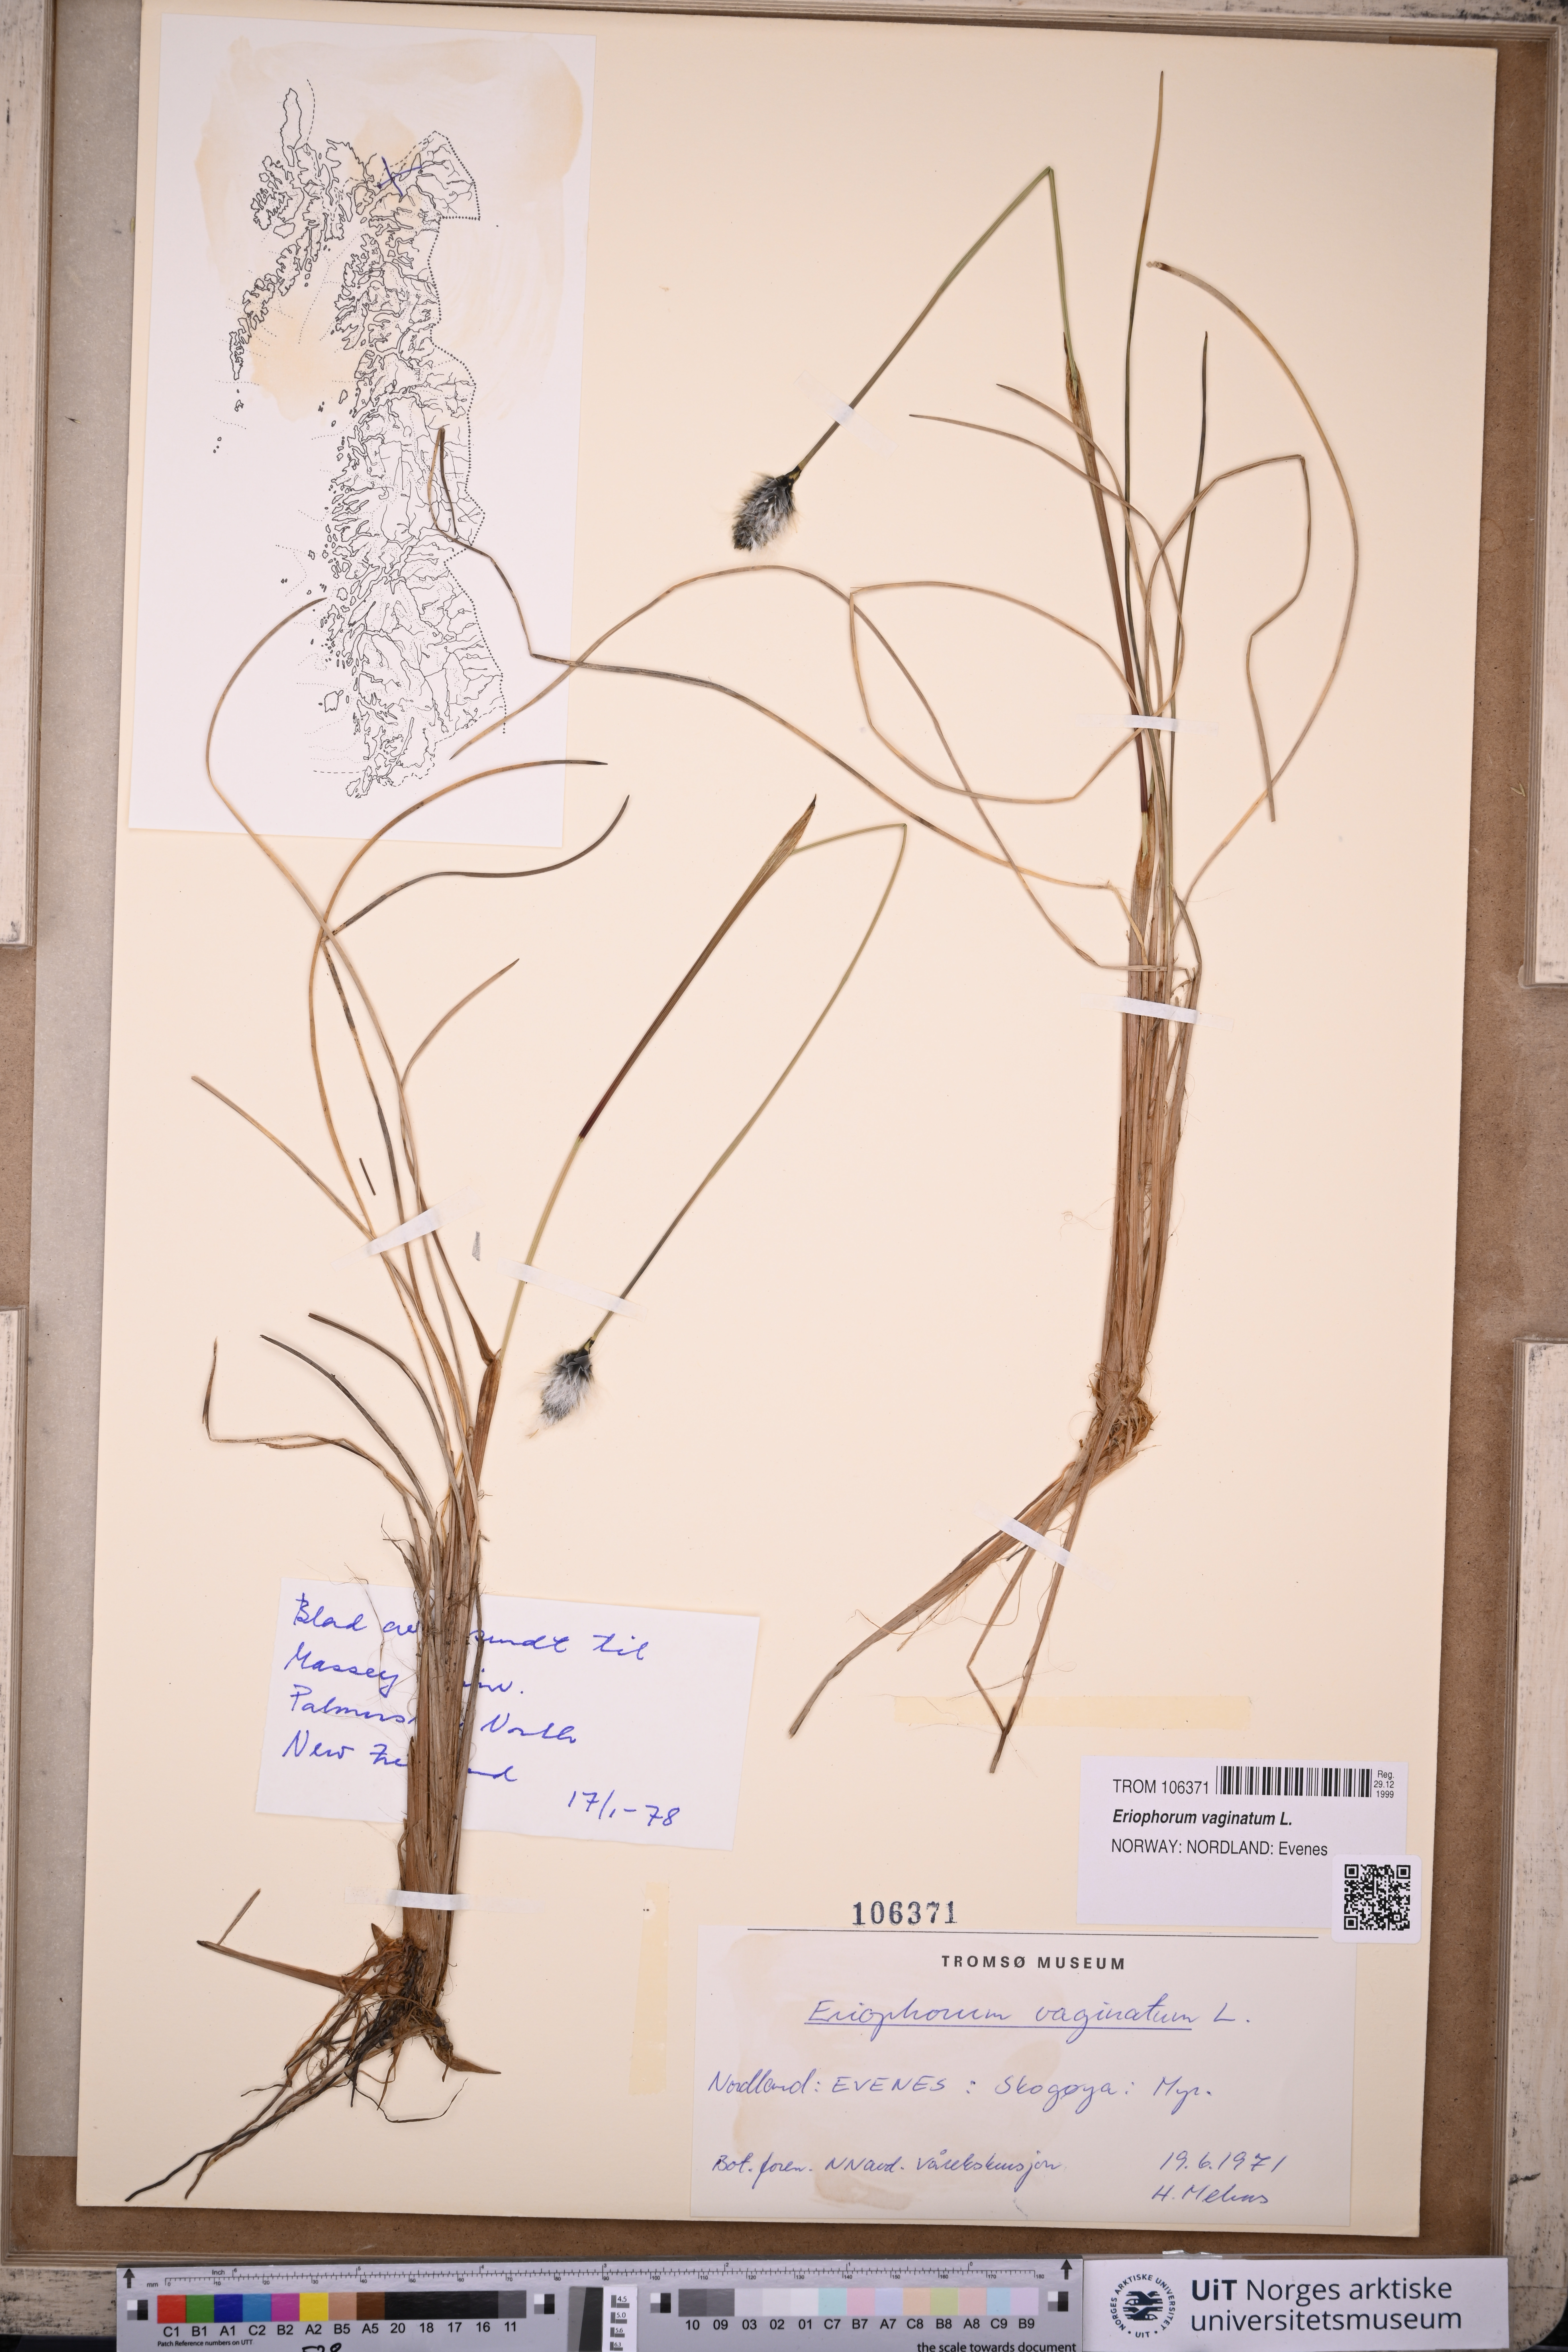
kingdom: Plantae
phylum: Tracheophyta
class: Liliopsida
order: Poales
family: Cyperaceae
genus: Eriophorum
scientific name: Eriophorum vaginatum
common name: Hare's-tail cottongrass
